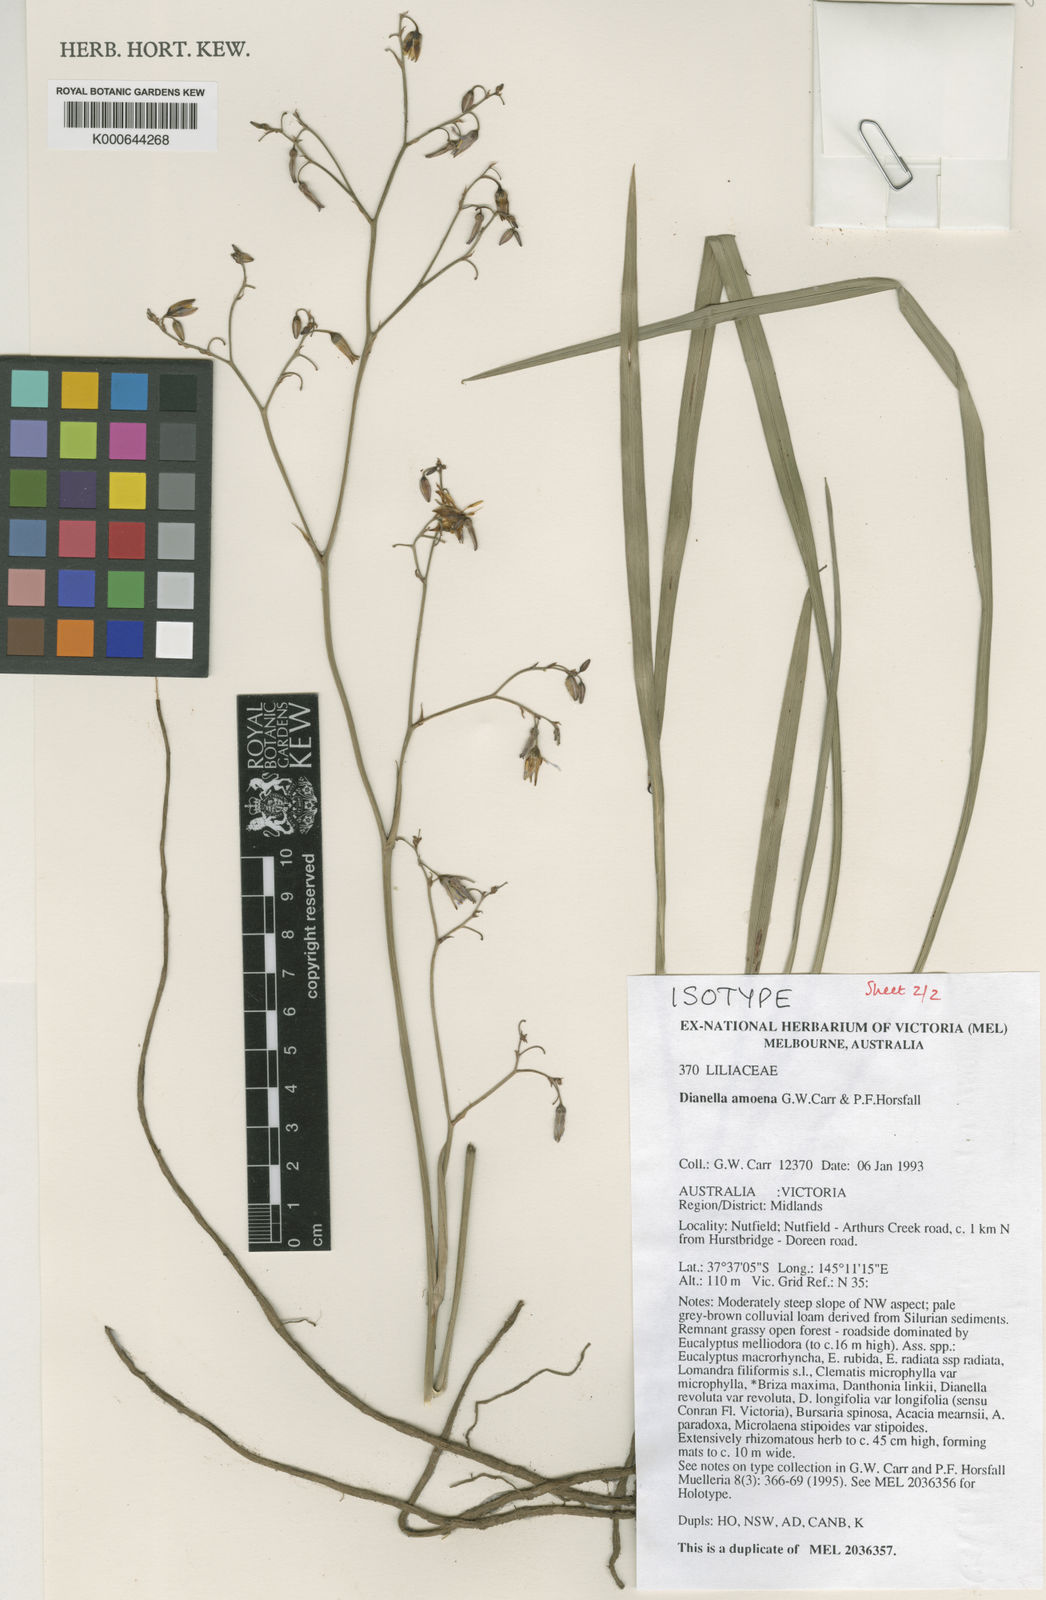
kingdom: Plantae
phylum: Tracheophyta
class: Liliopsida
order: Asparagales
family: Asphodelaceae
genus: Dianella
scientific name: Dianella amoena
